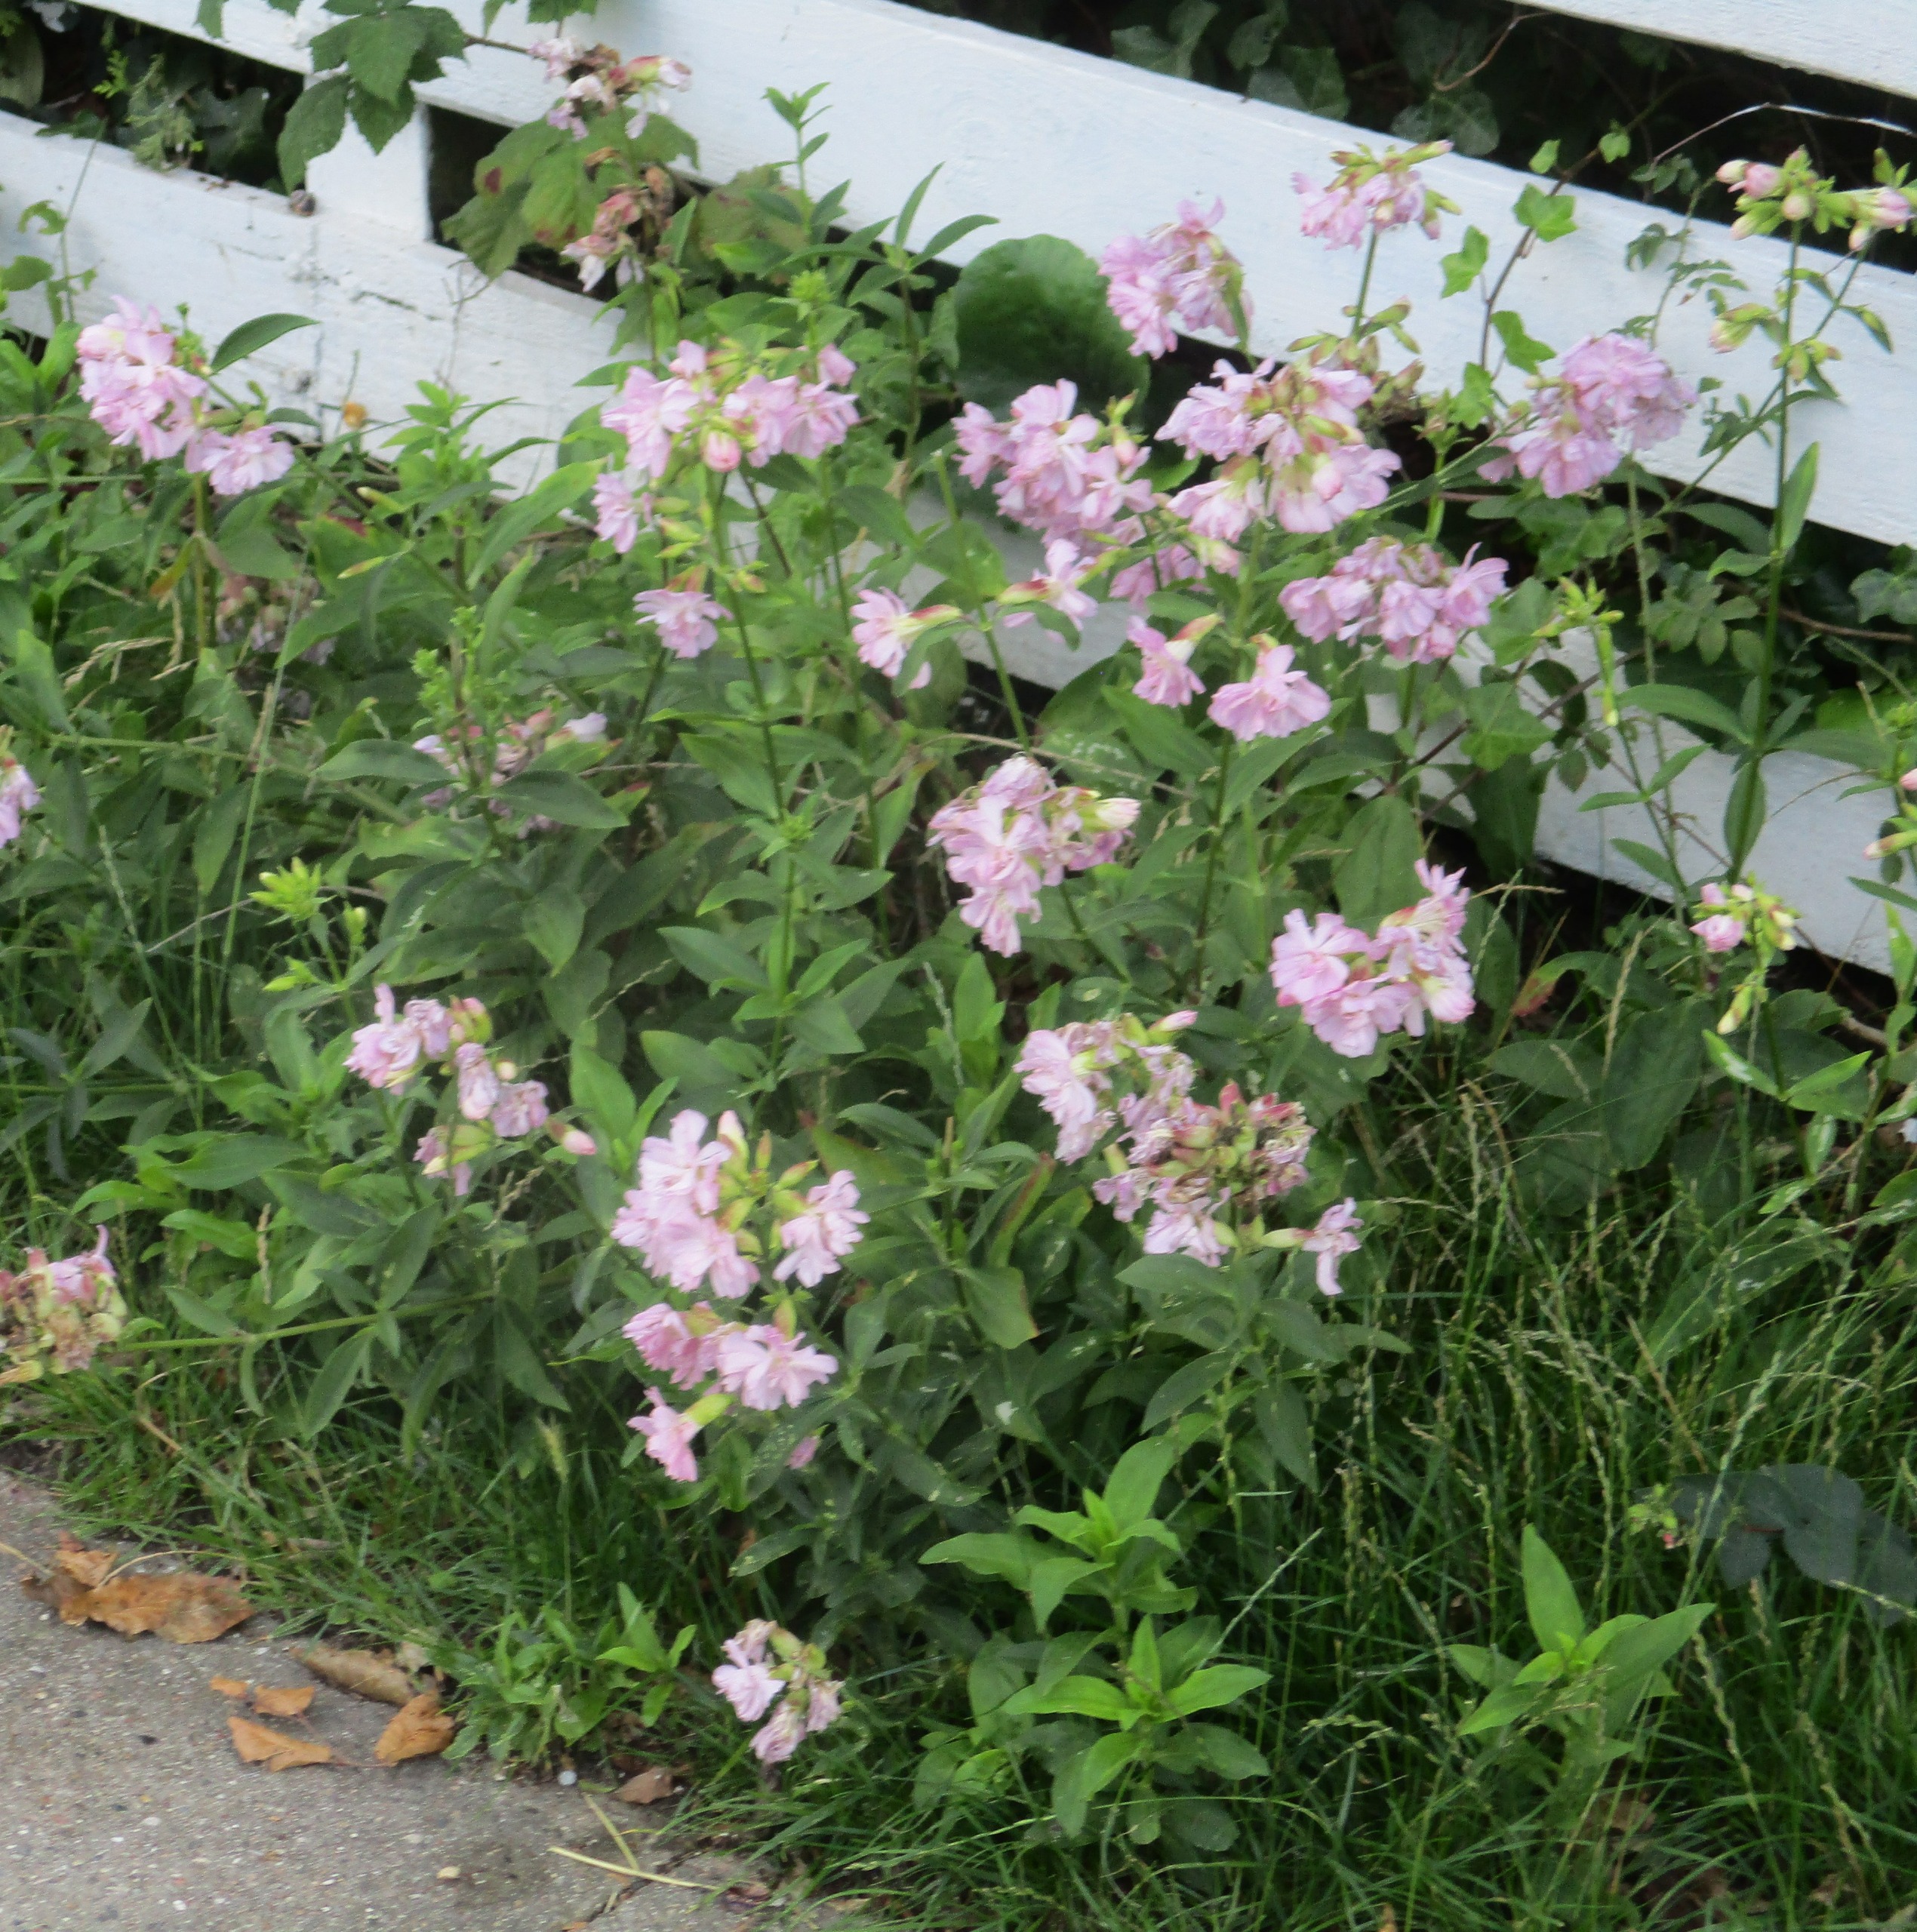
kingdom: Plantae
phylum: Tracheophyta
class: Magnoliopsida
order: Caryophyllales
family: Caryophyllaceae
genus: Saponaria
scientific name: Saponaria officinalis
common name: Sæbeurt
